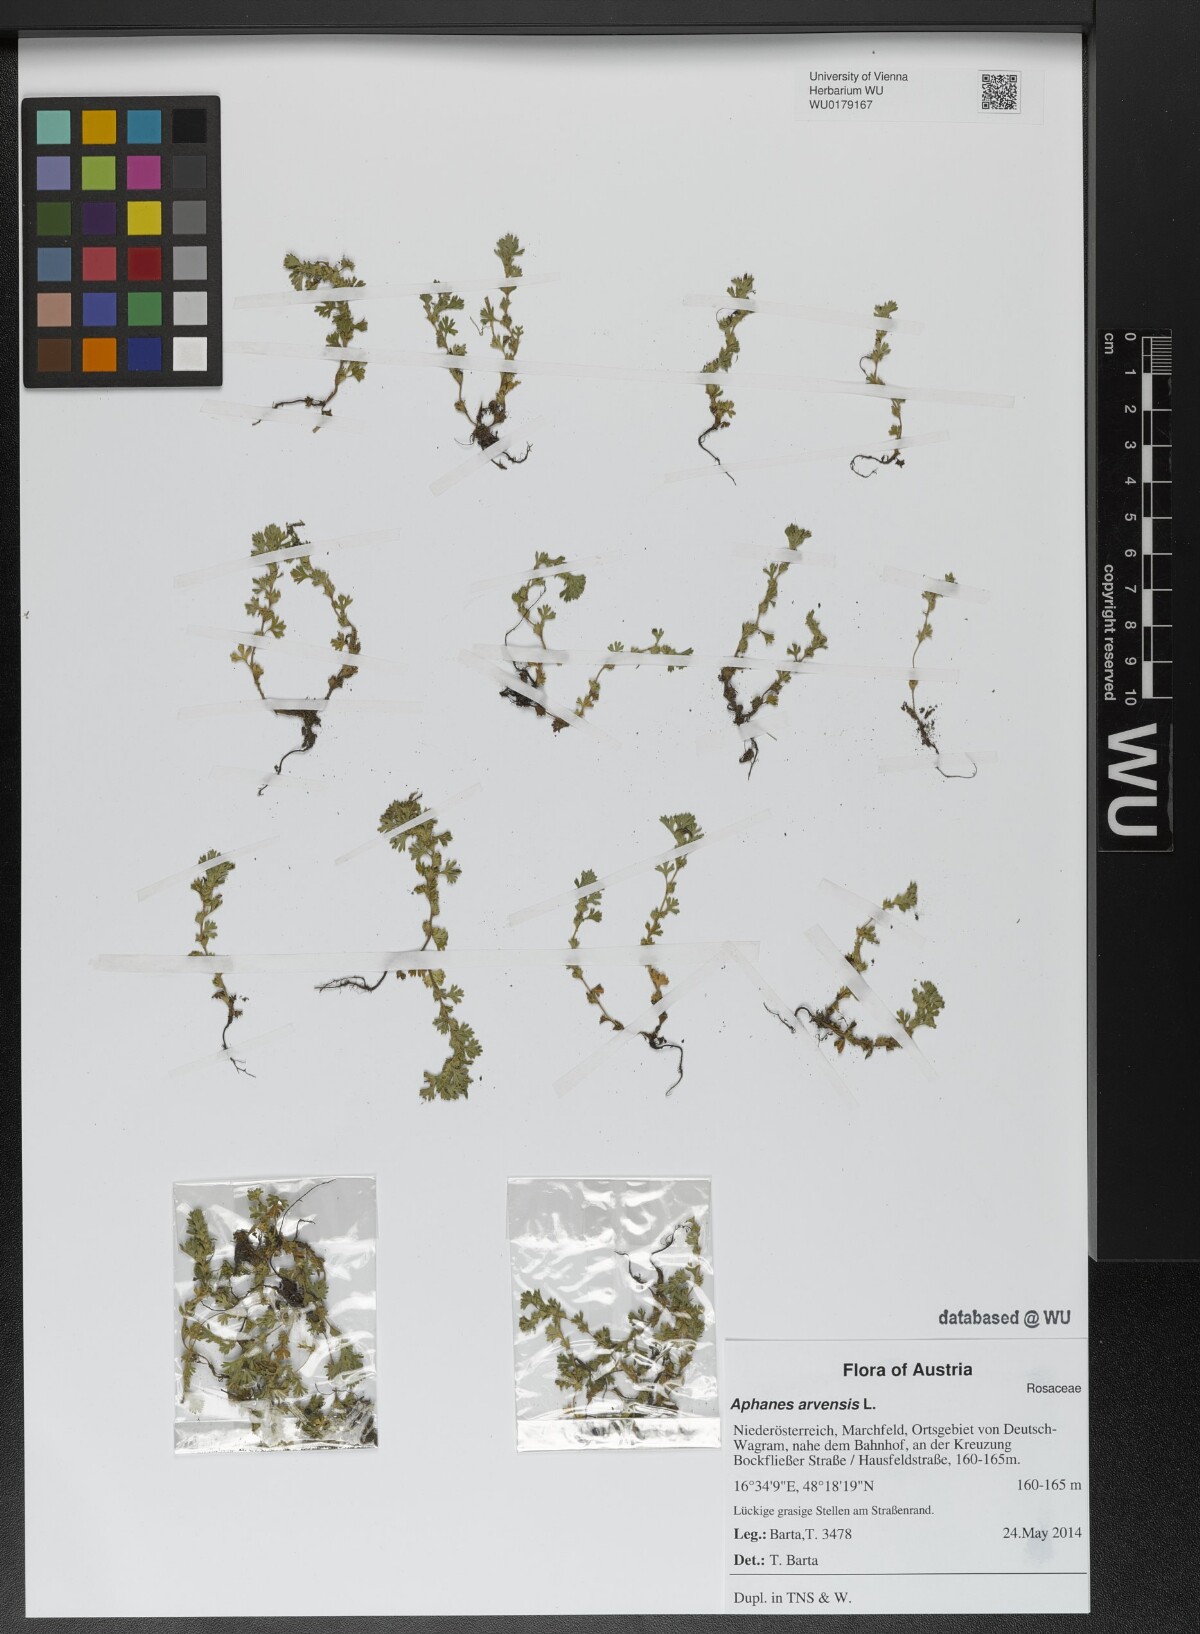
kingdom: Plantae
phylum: Tracheophyta
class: Magnoliopsida
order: Rosales
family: Rosaceae
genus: Aphanes
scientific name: Aphanes arvensis
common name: Parsley-piert
